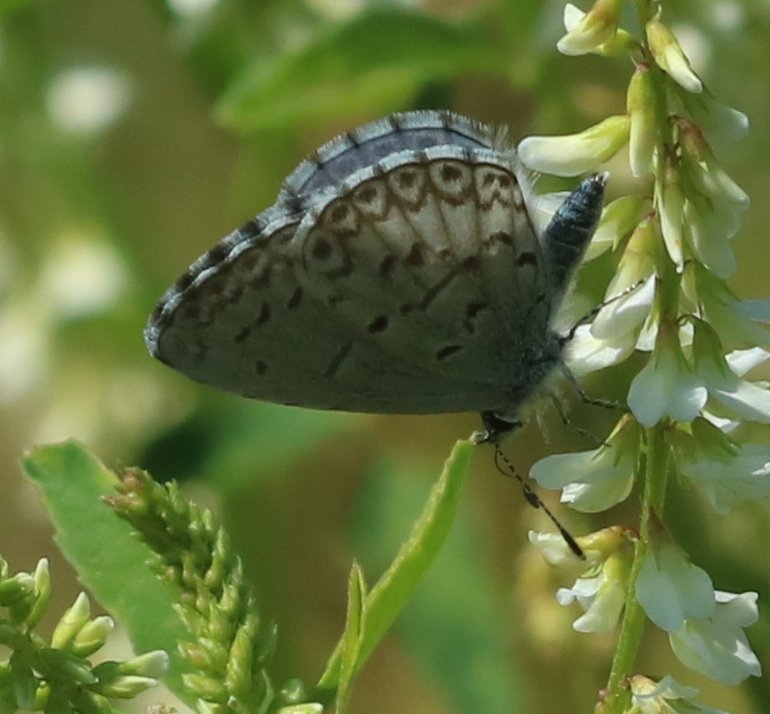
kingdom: Animalia
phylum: Arthropoda
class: Insecta
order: Lepidoptera
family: Lycaenidae
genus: Celastrina
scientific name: Celastrina lucia
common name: Northern Spring Azure
